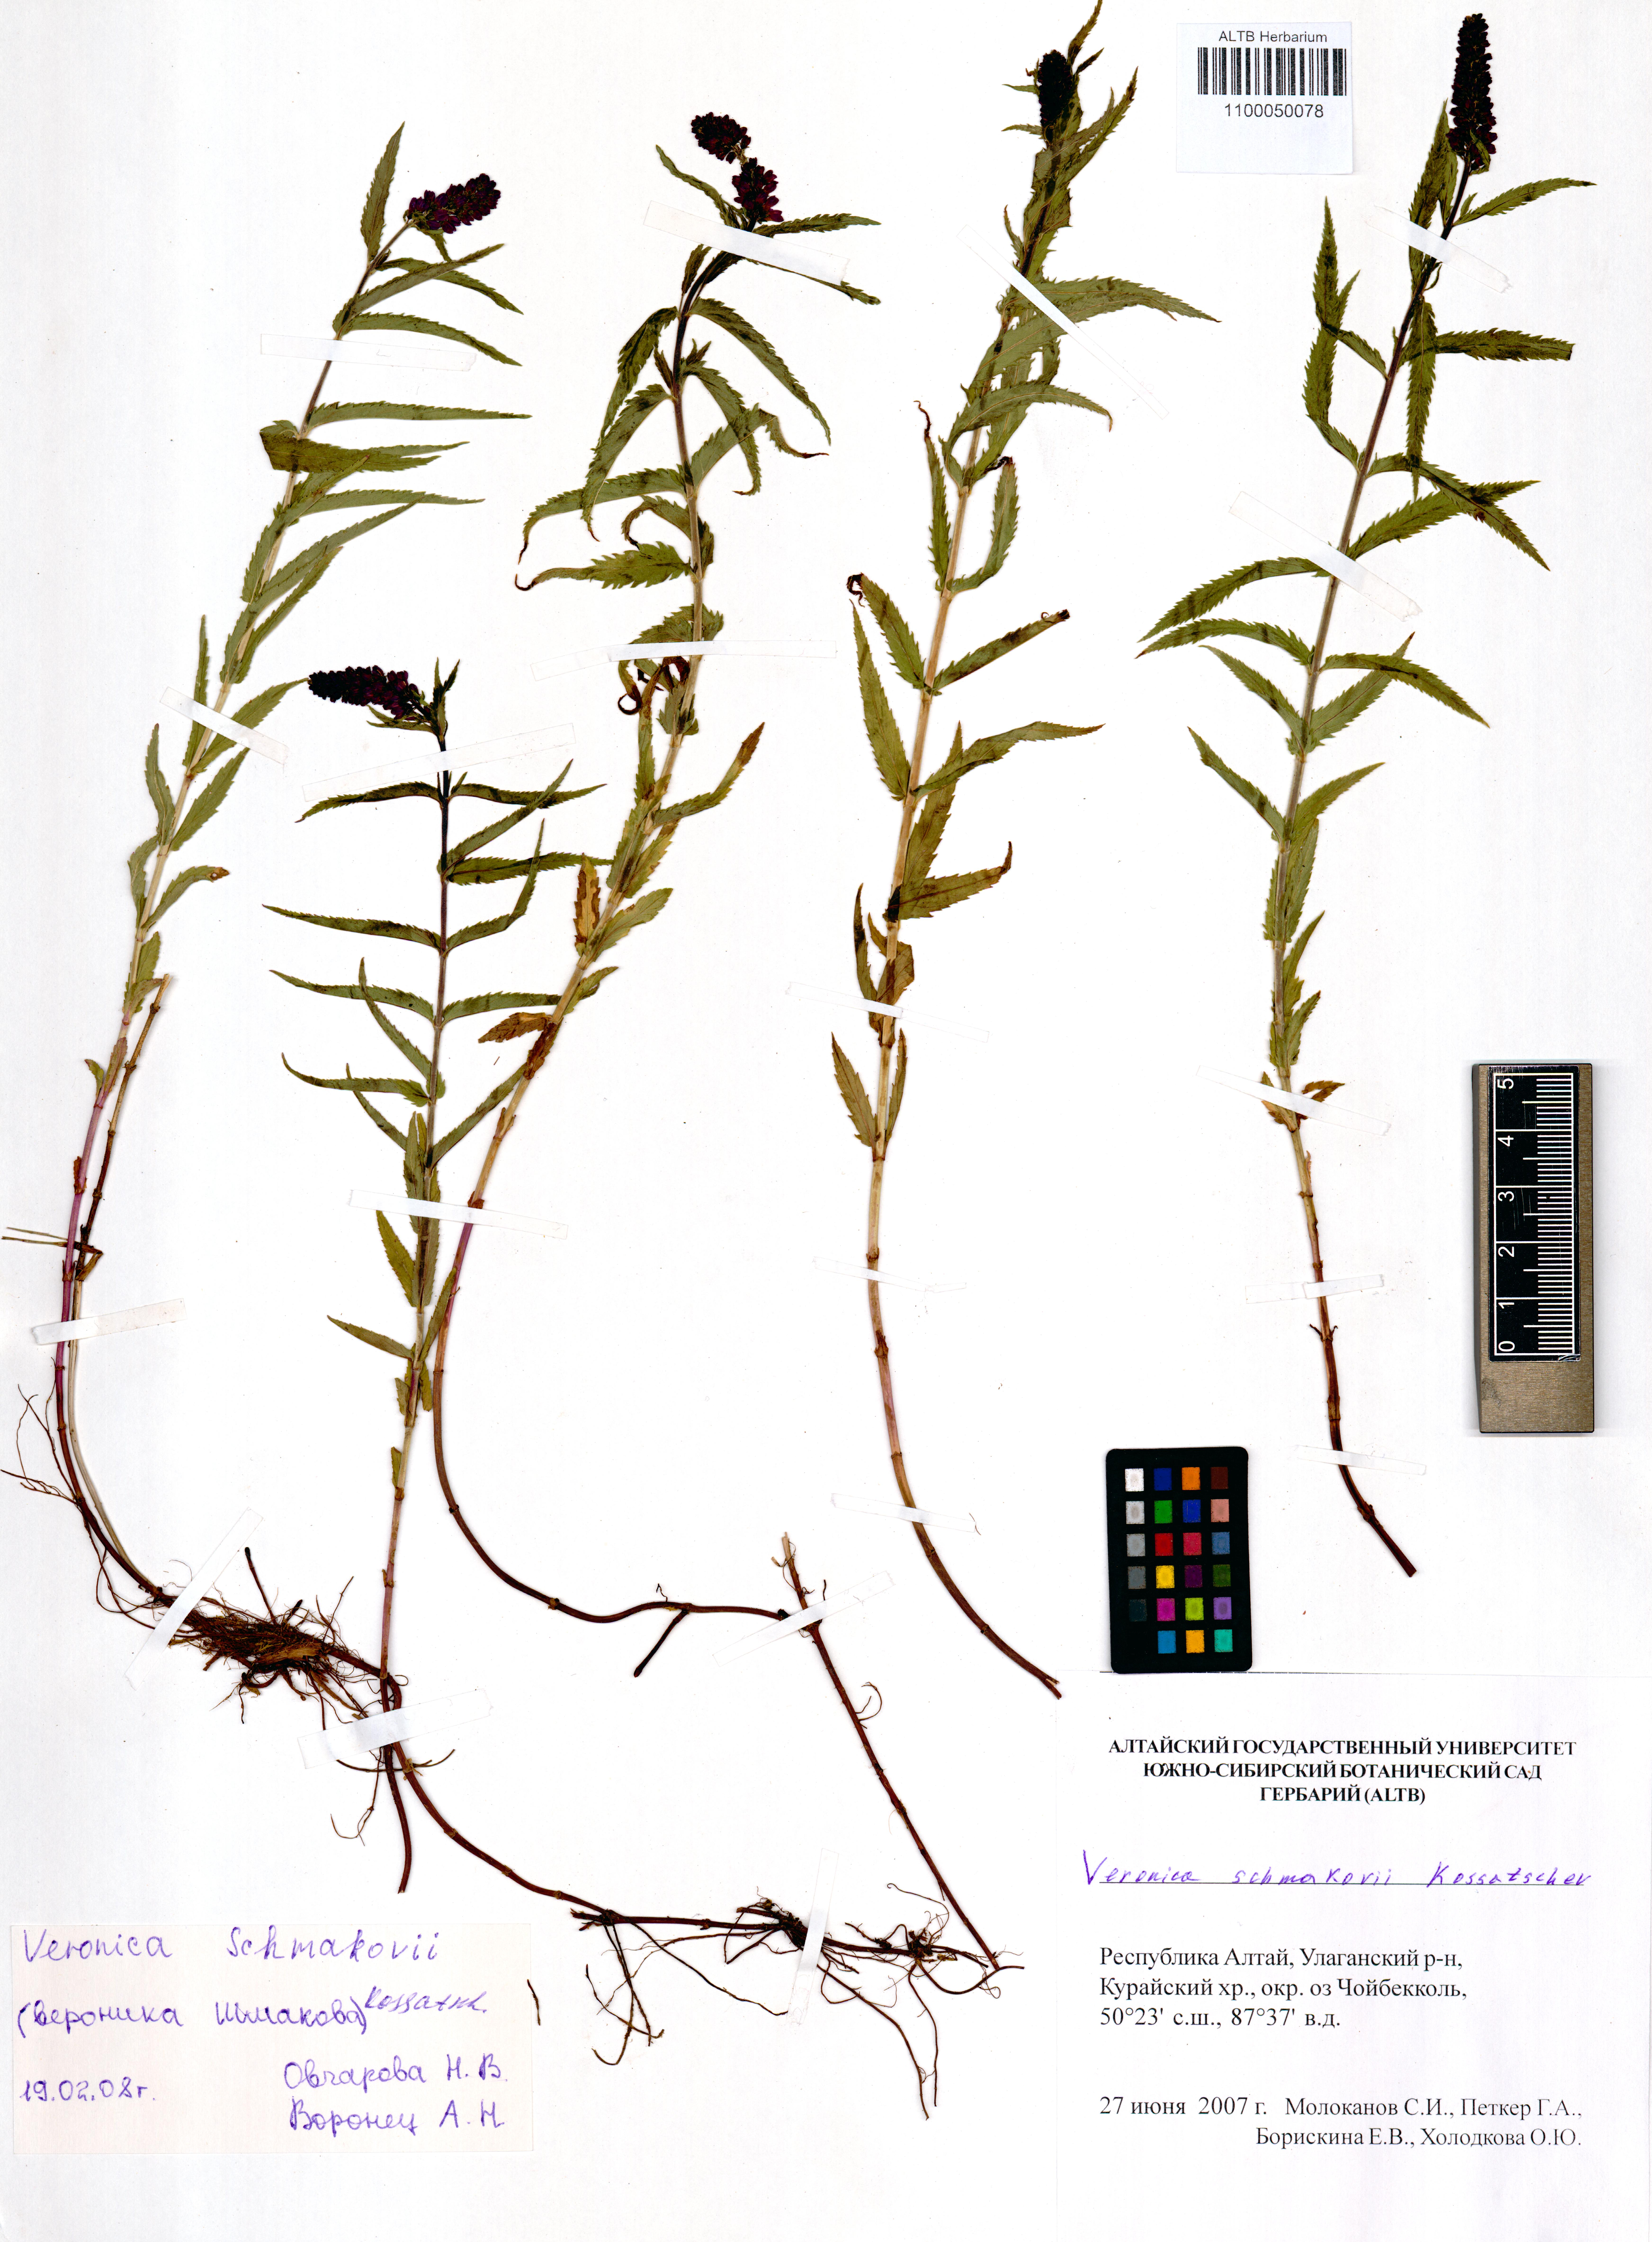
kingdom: Plantae
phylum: Tracheophyta
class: Magnoliopsida
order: Lamiales
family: Plantaginaceae
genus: Veronica
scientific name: Veronica schmakovii
